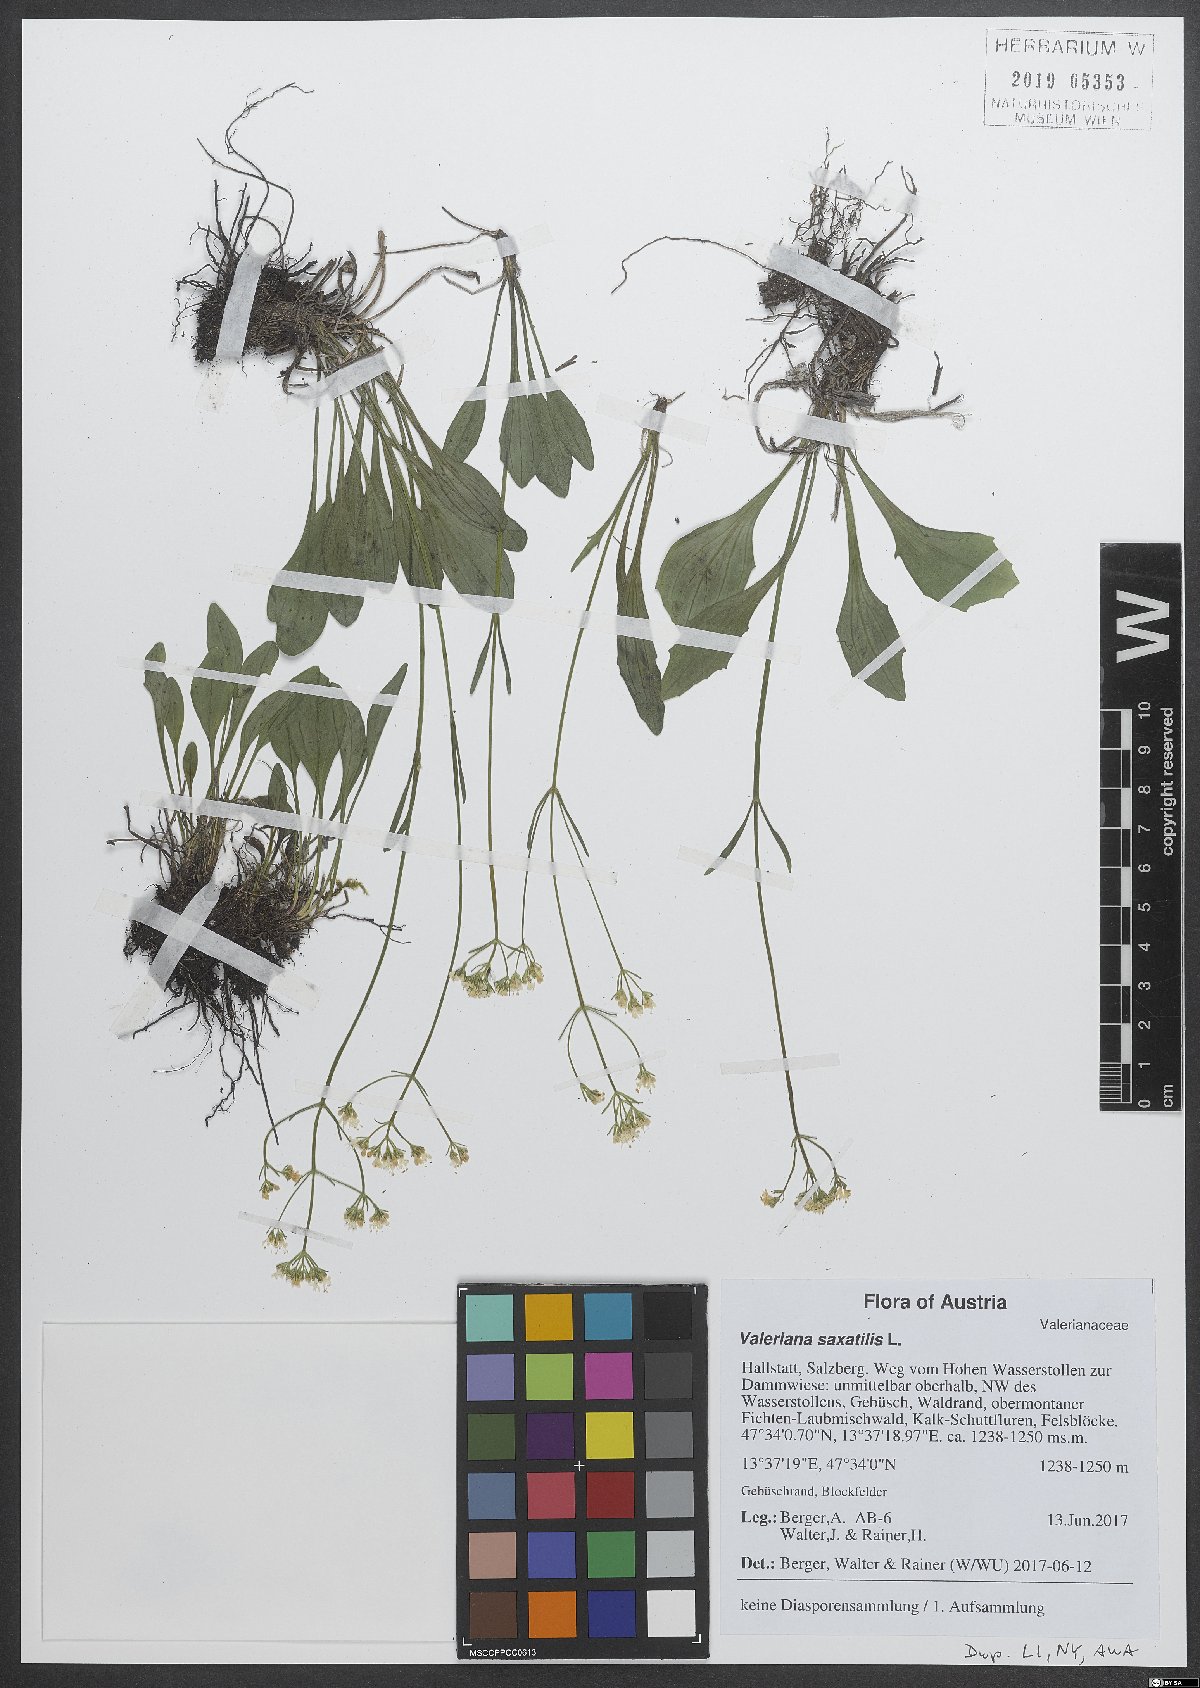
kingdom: Plantae
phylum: Tracheophyta
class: Magnoliopsida
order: Dipsacales
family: Caprifoliaceae
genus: Valeriana
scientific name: Valeriana saxatilis
